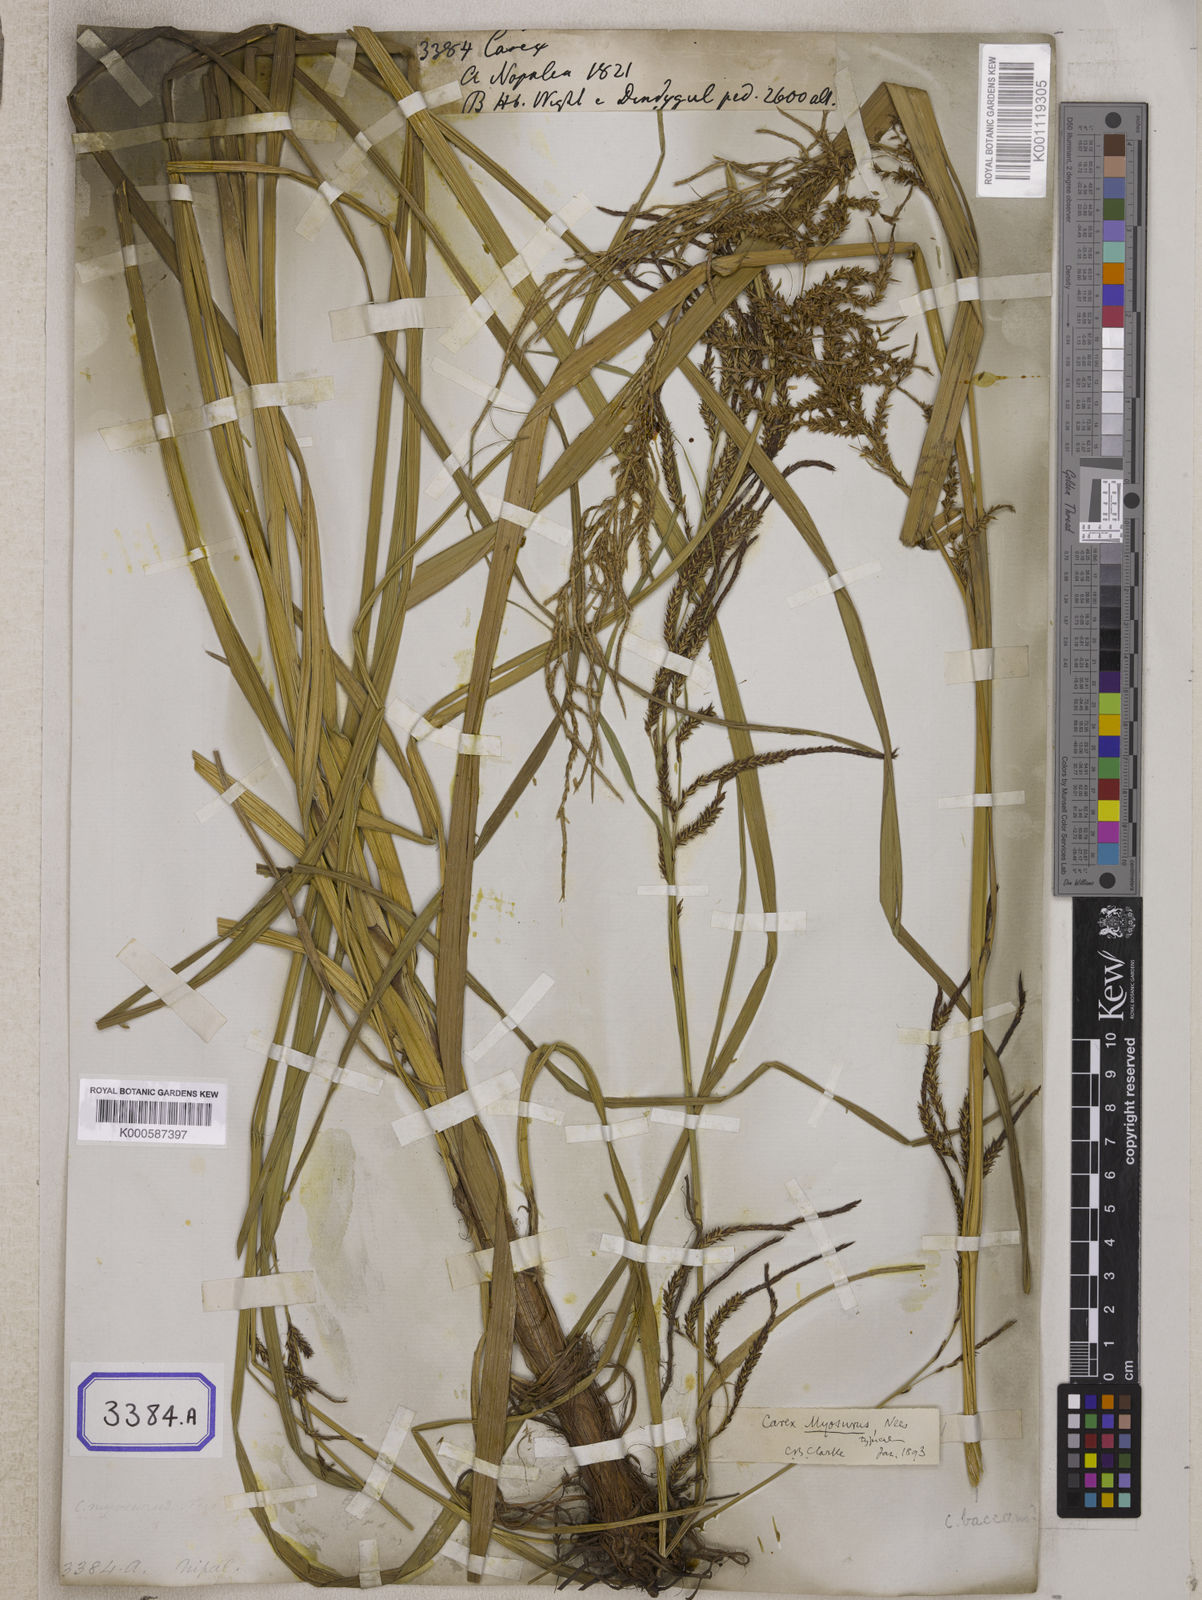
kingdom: Plantae
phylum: Tracheophyta
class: Liliopsida
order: Poales
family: Cyperaceae
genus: Carex
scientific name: Carex
